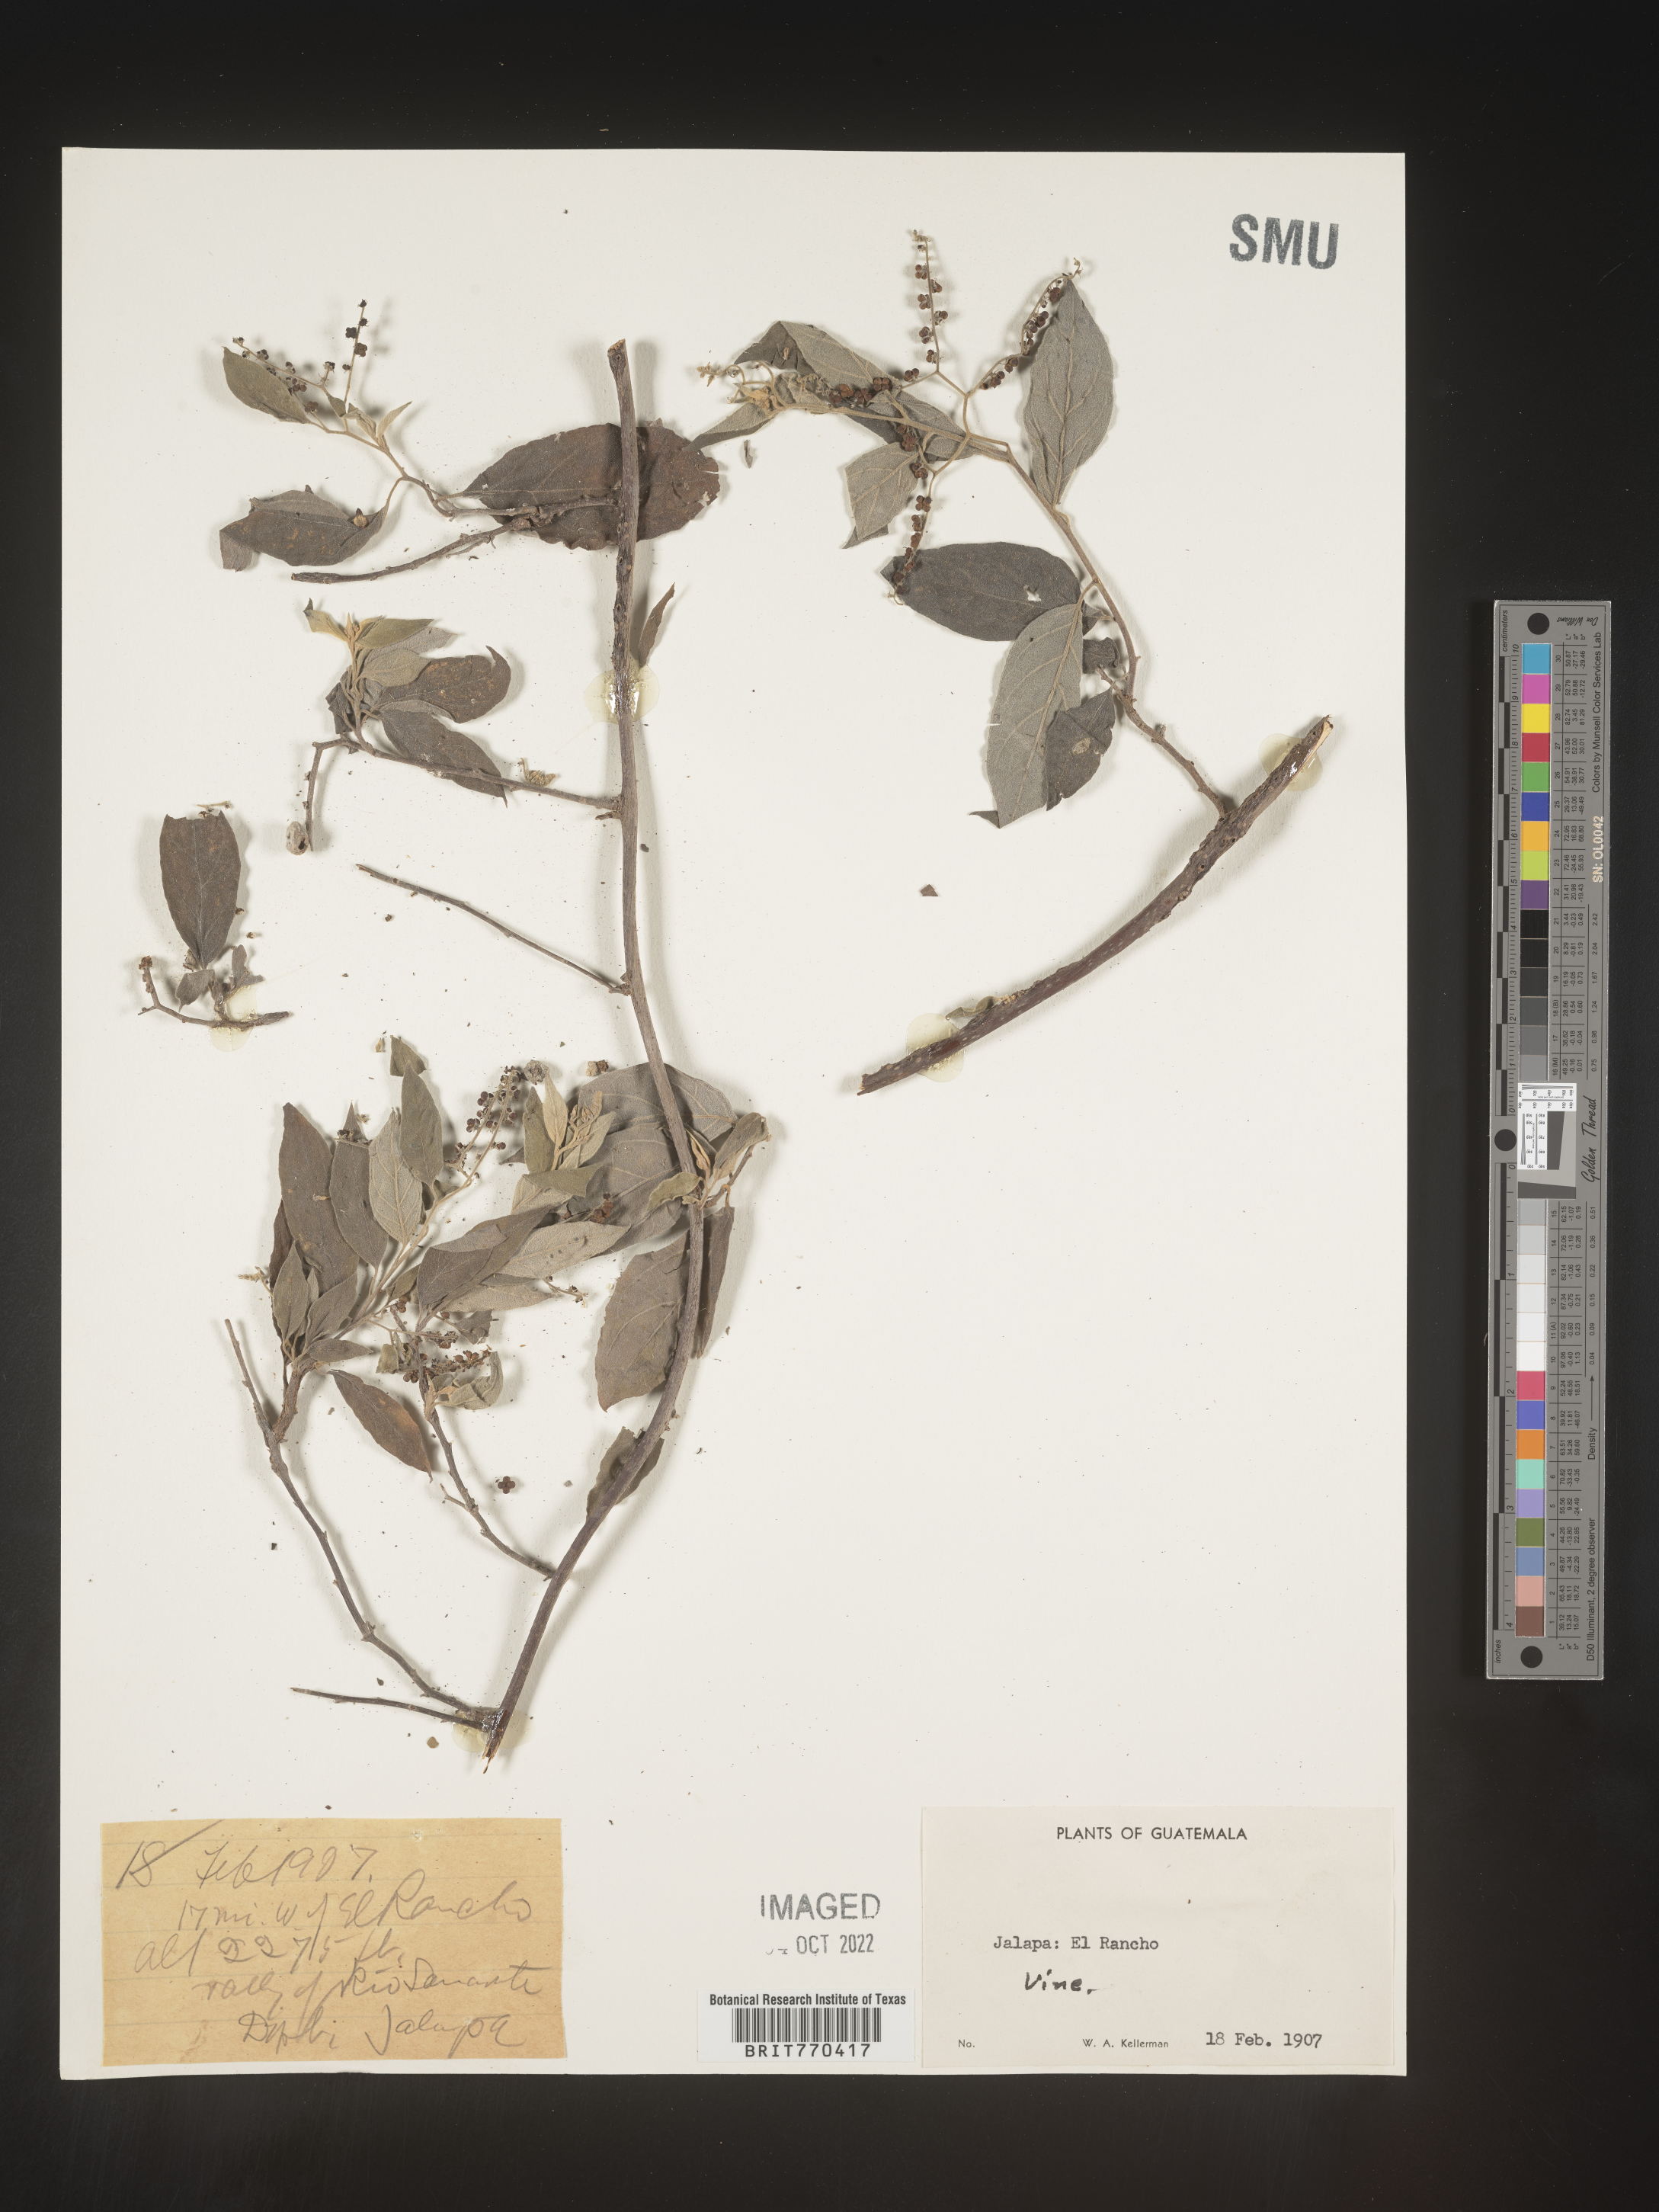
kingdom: Plantae
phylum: Tracheophyta
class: Magnoliopsida
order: Boraginales
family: Heliotropiaceae
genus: Tournefortia
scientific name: Tournefortia
